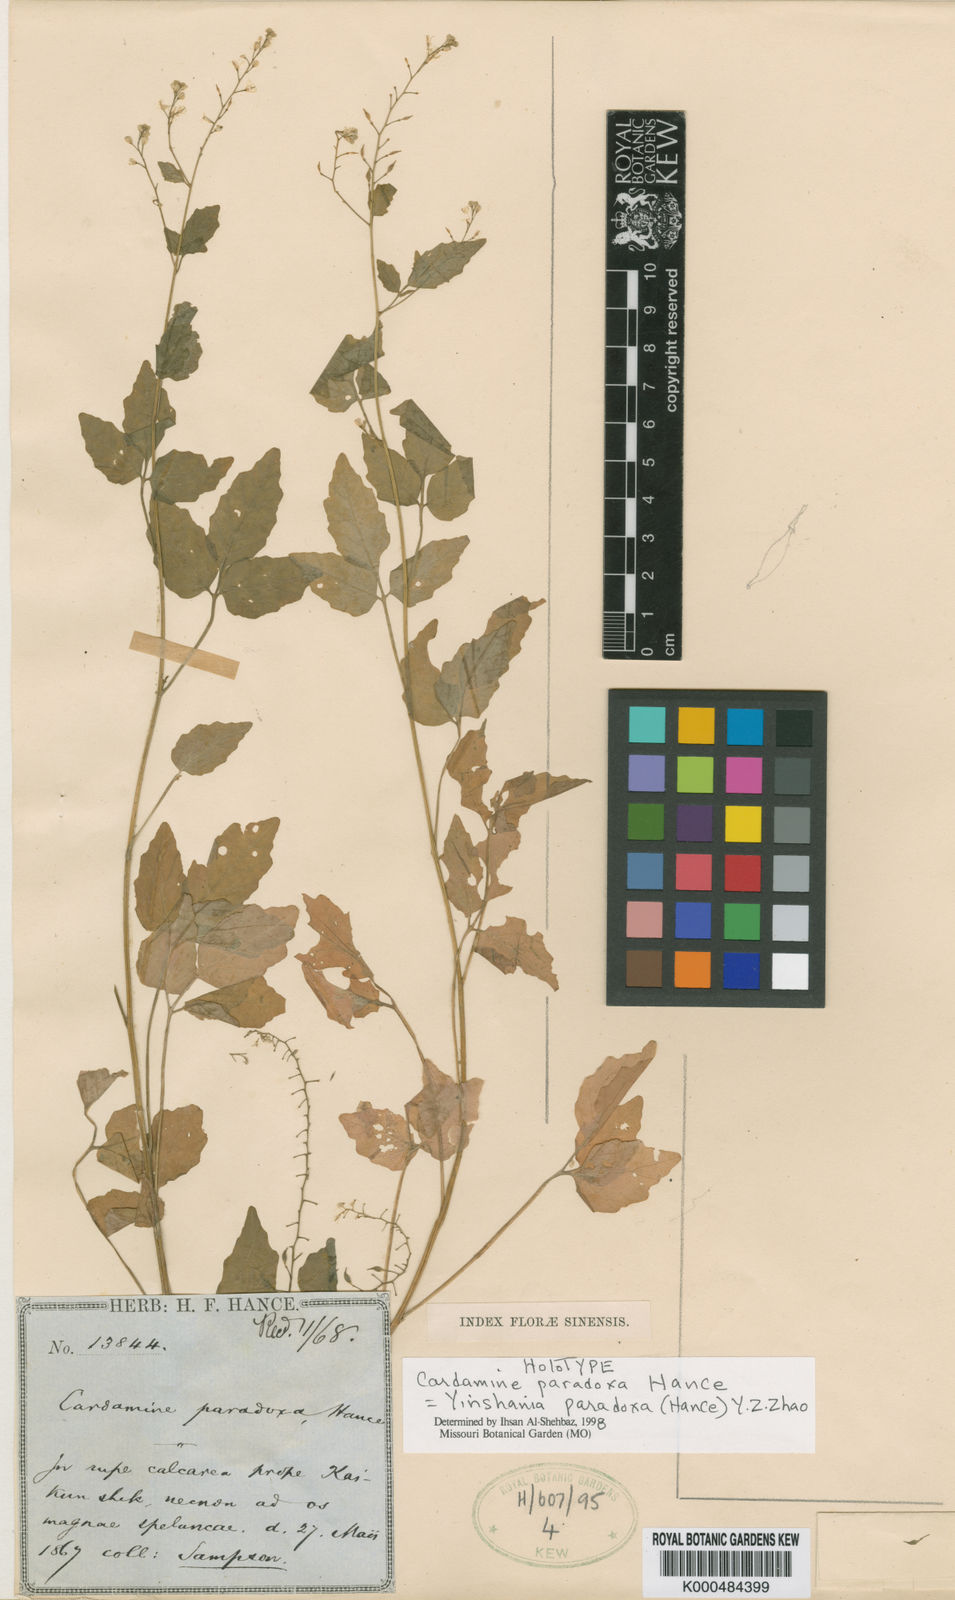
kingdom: Plantae
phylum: Tracheophyta
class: Magnoliopsida
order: Brassicales
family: Brassicaceae
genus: Hilliella
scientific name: Hilliella paradoxa
